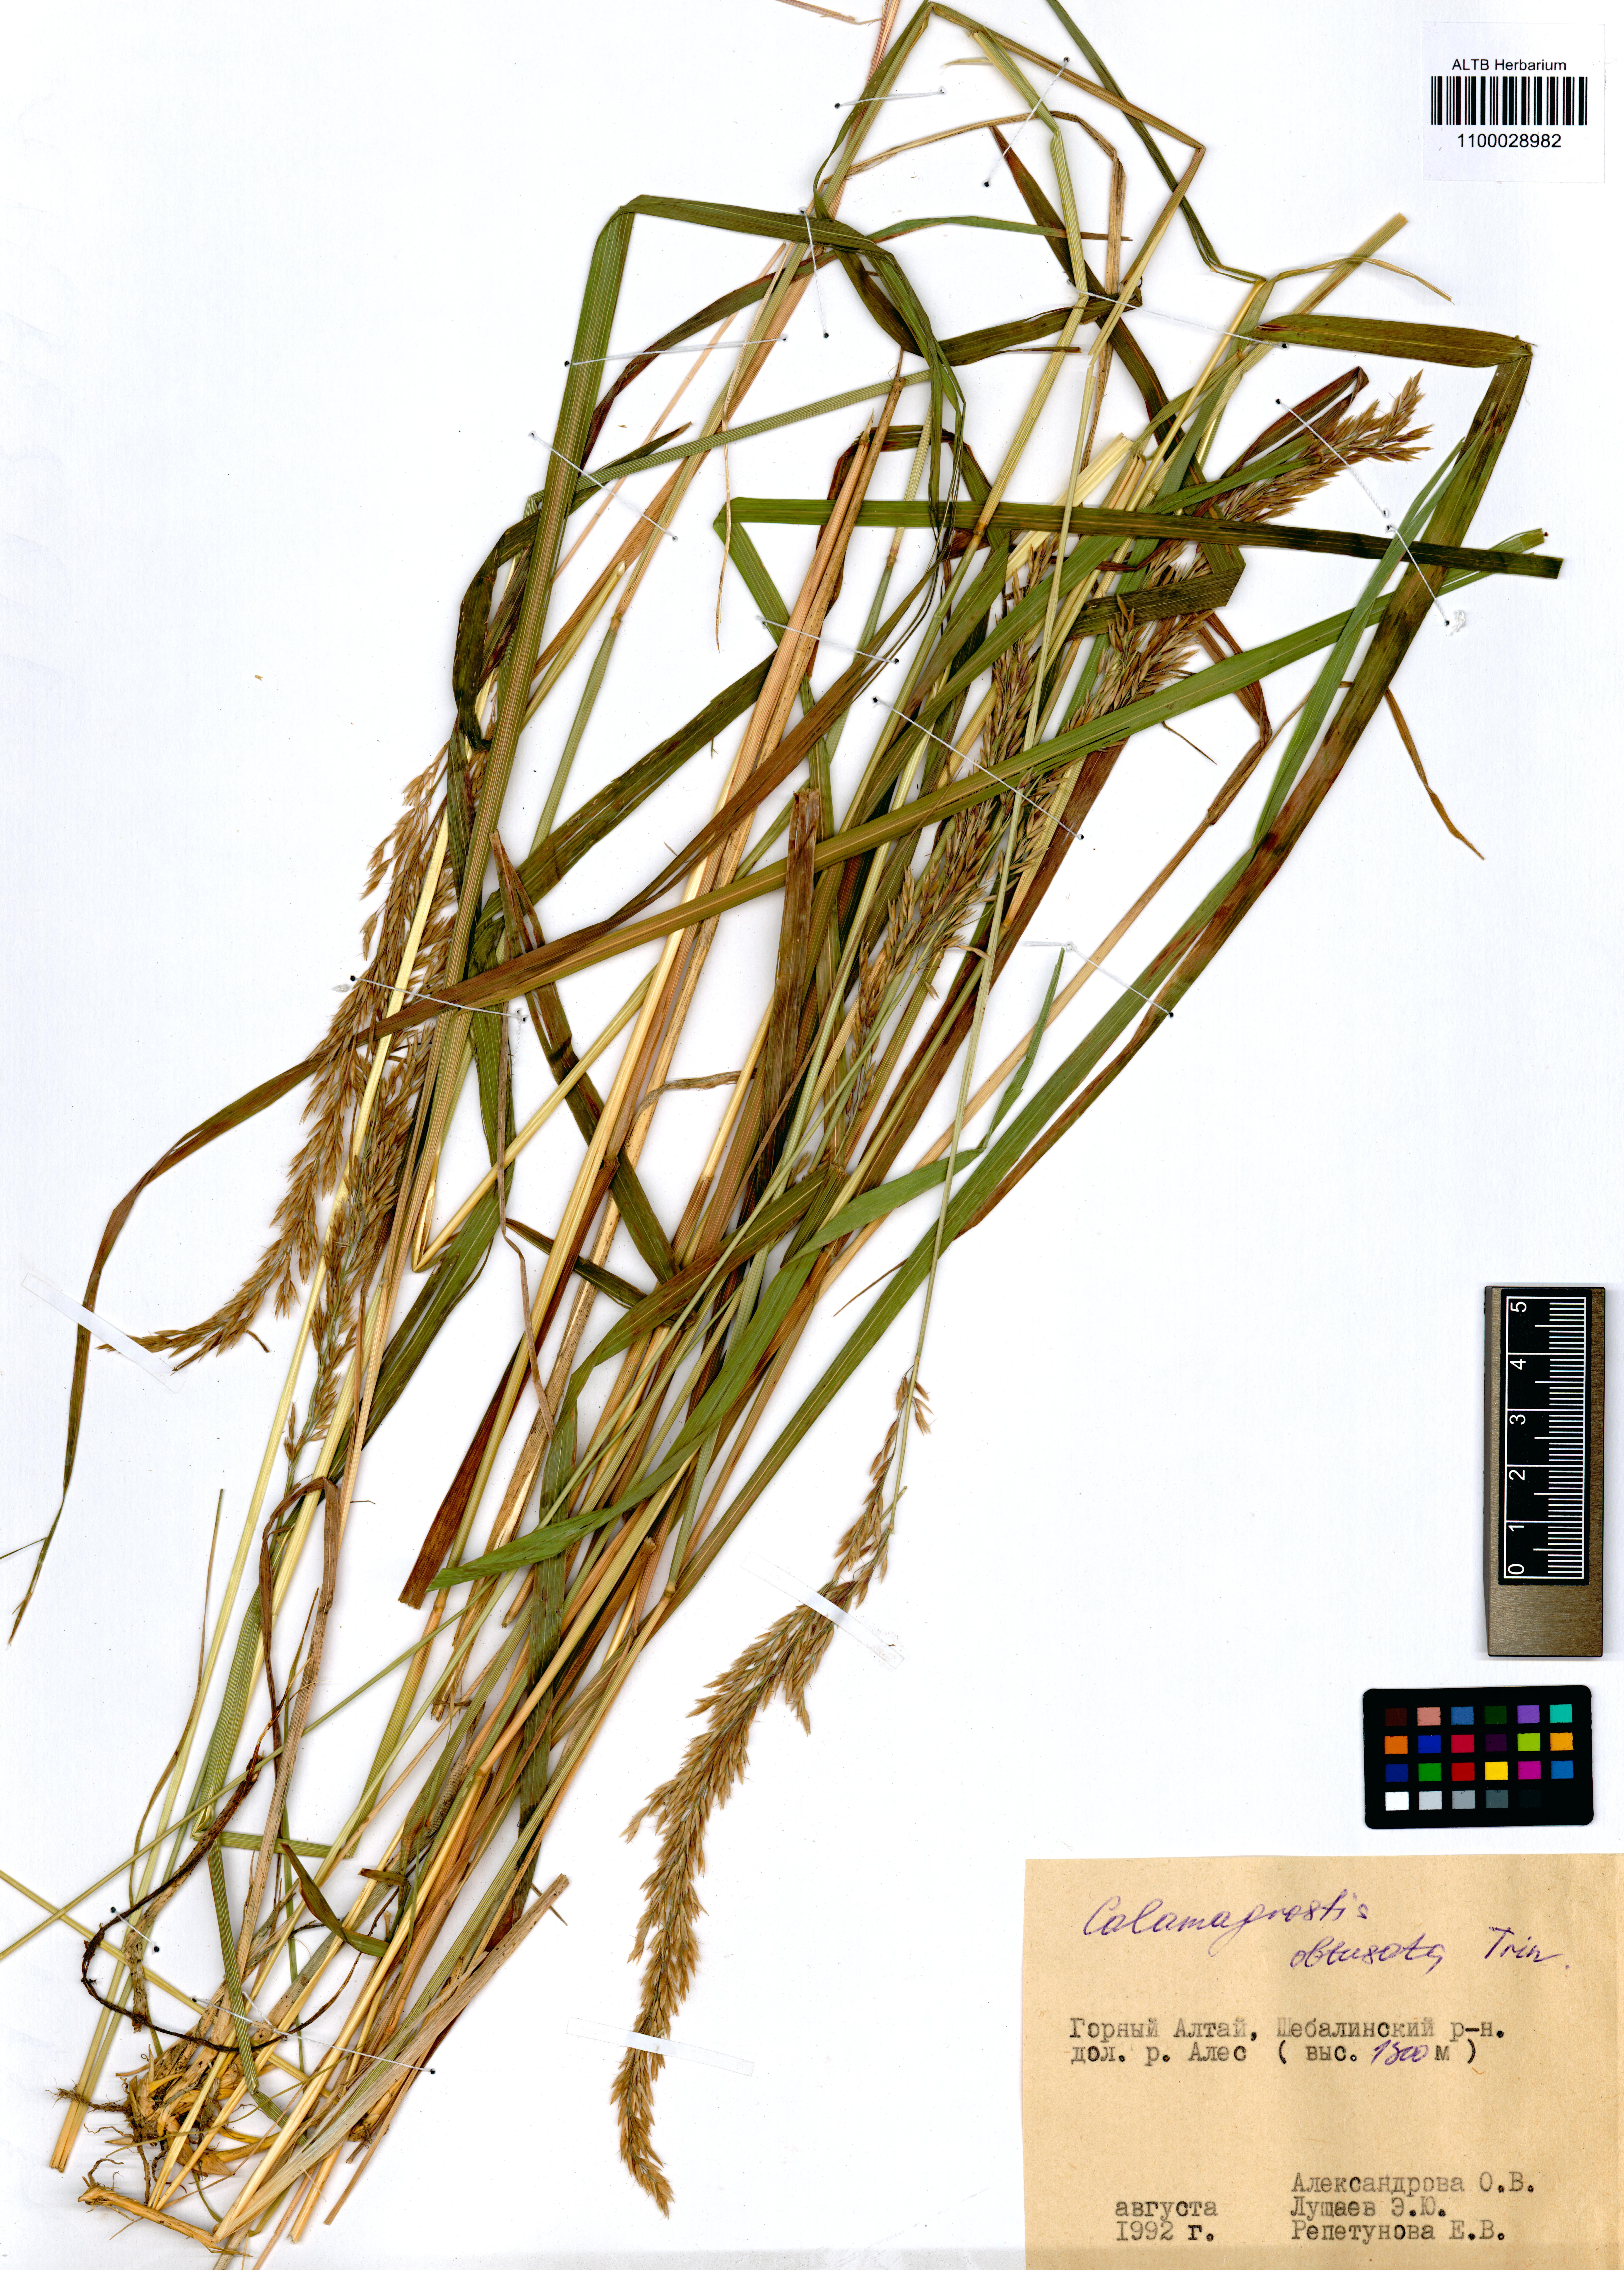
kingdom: Plantae
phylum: Tracheophyta
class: Liliopsida
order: Poales
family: Poaceae
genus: Calamagrostis
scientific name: Calamagrostis obtusata
